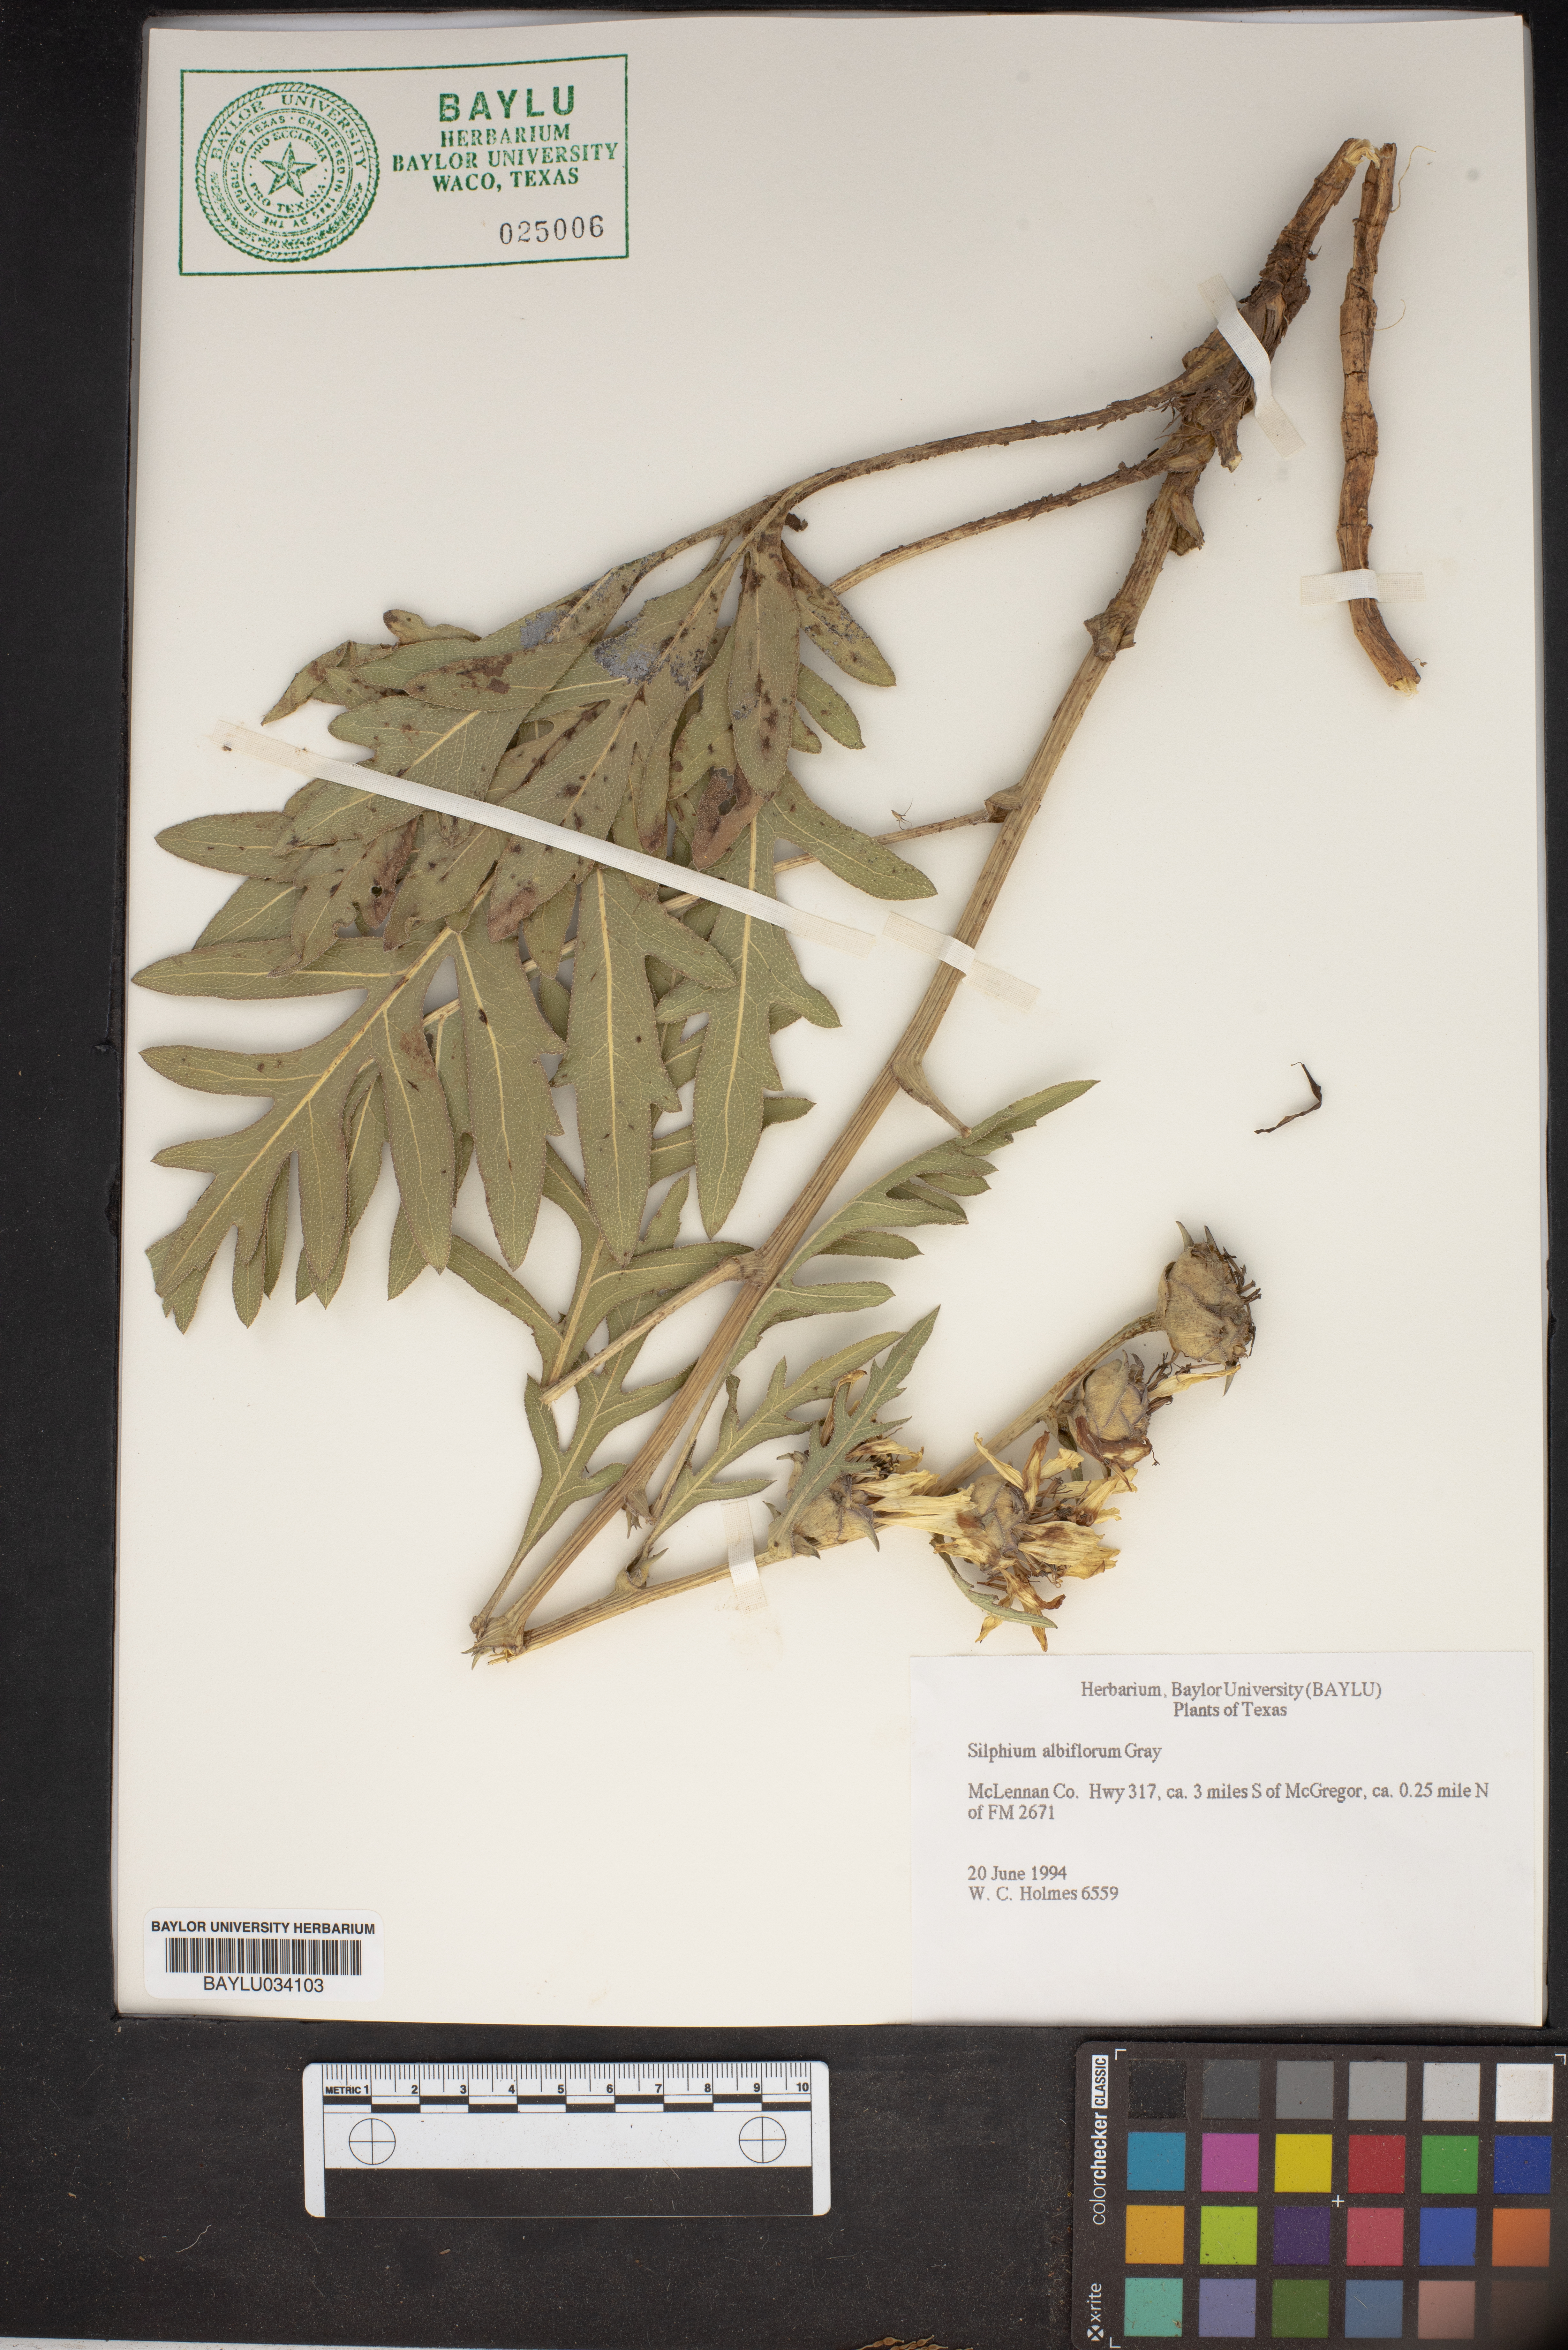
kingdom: Plantae
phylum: Tracheophyta
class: Magnoliopsida
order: Asterales
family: Asteraceae
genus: Silphium
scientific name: Silphium albiflorum
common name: White rosinweed
